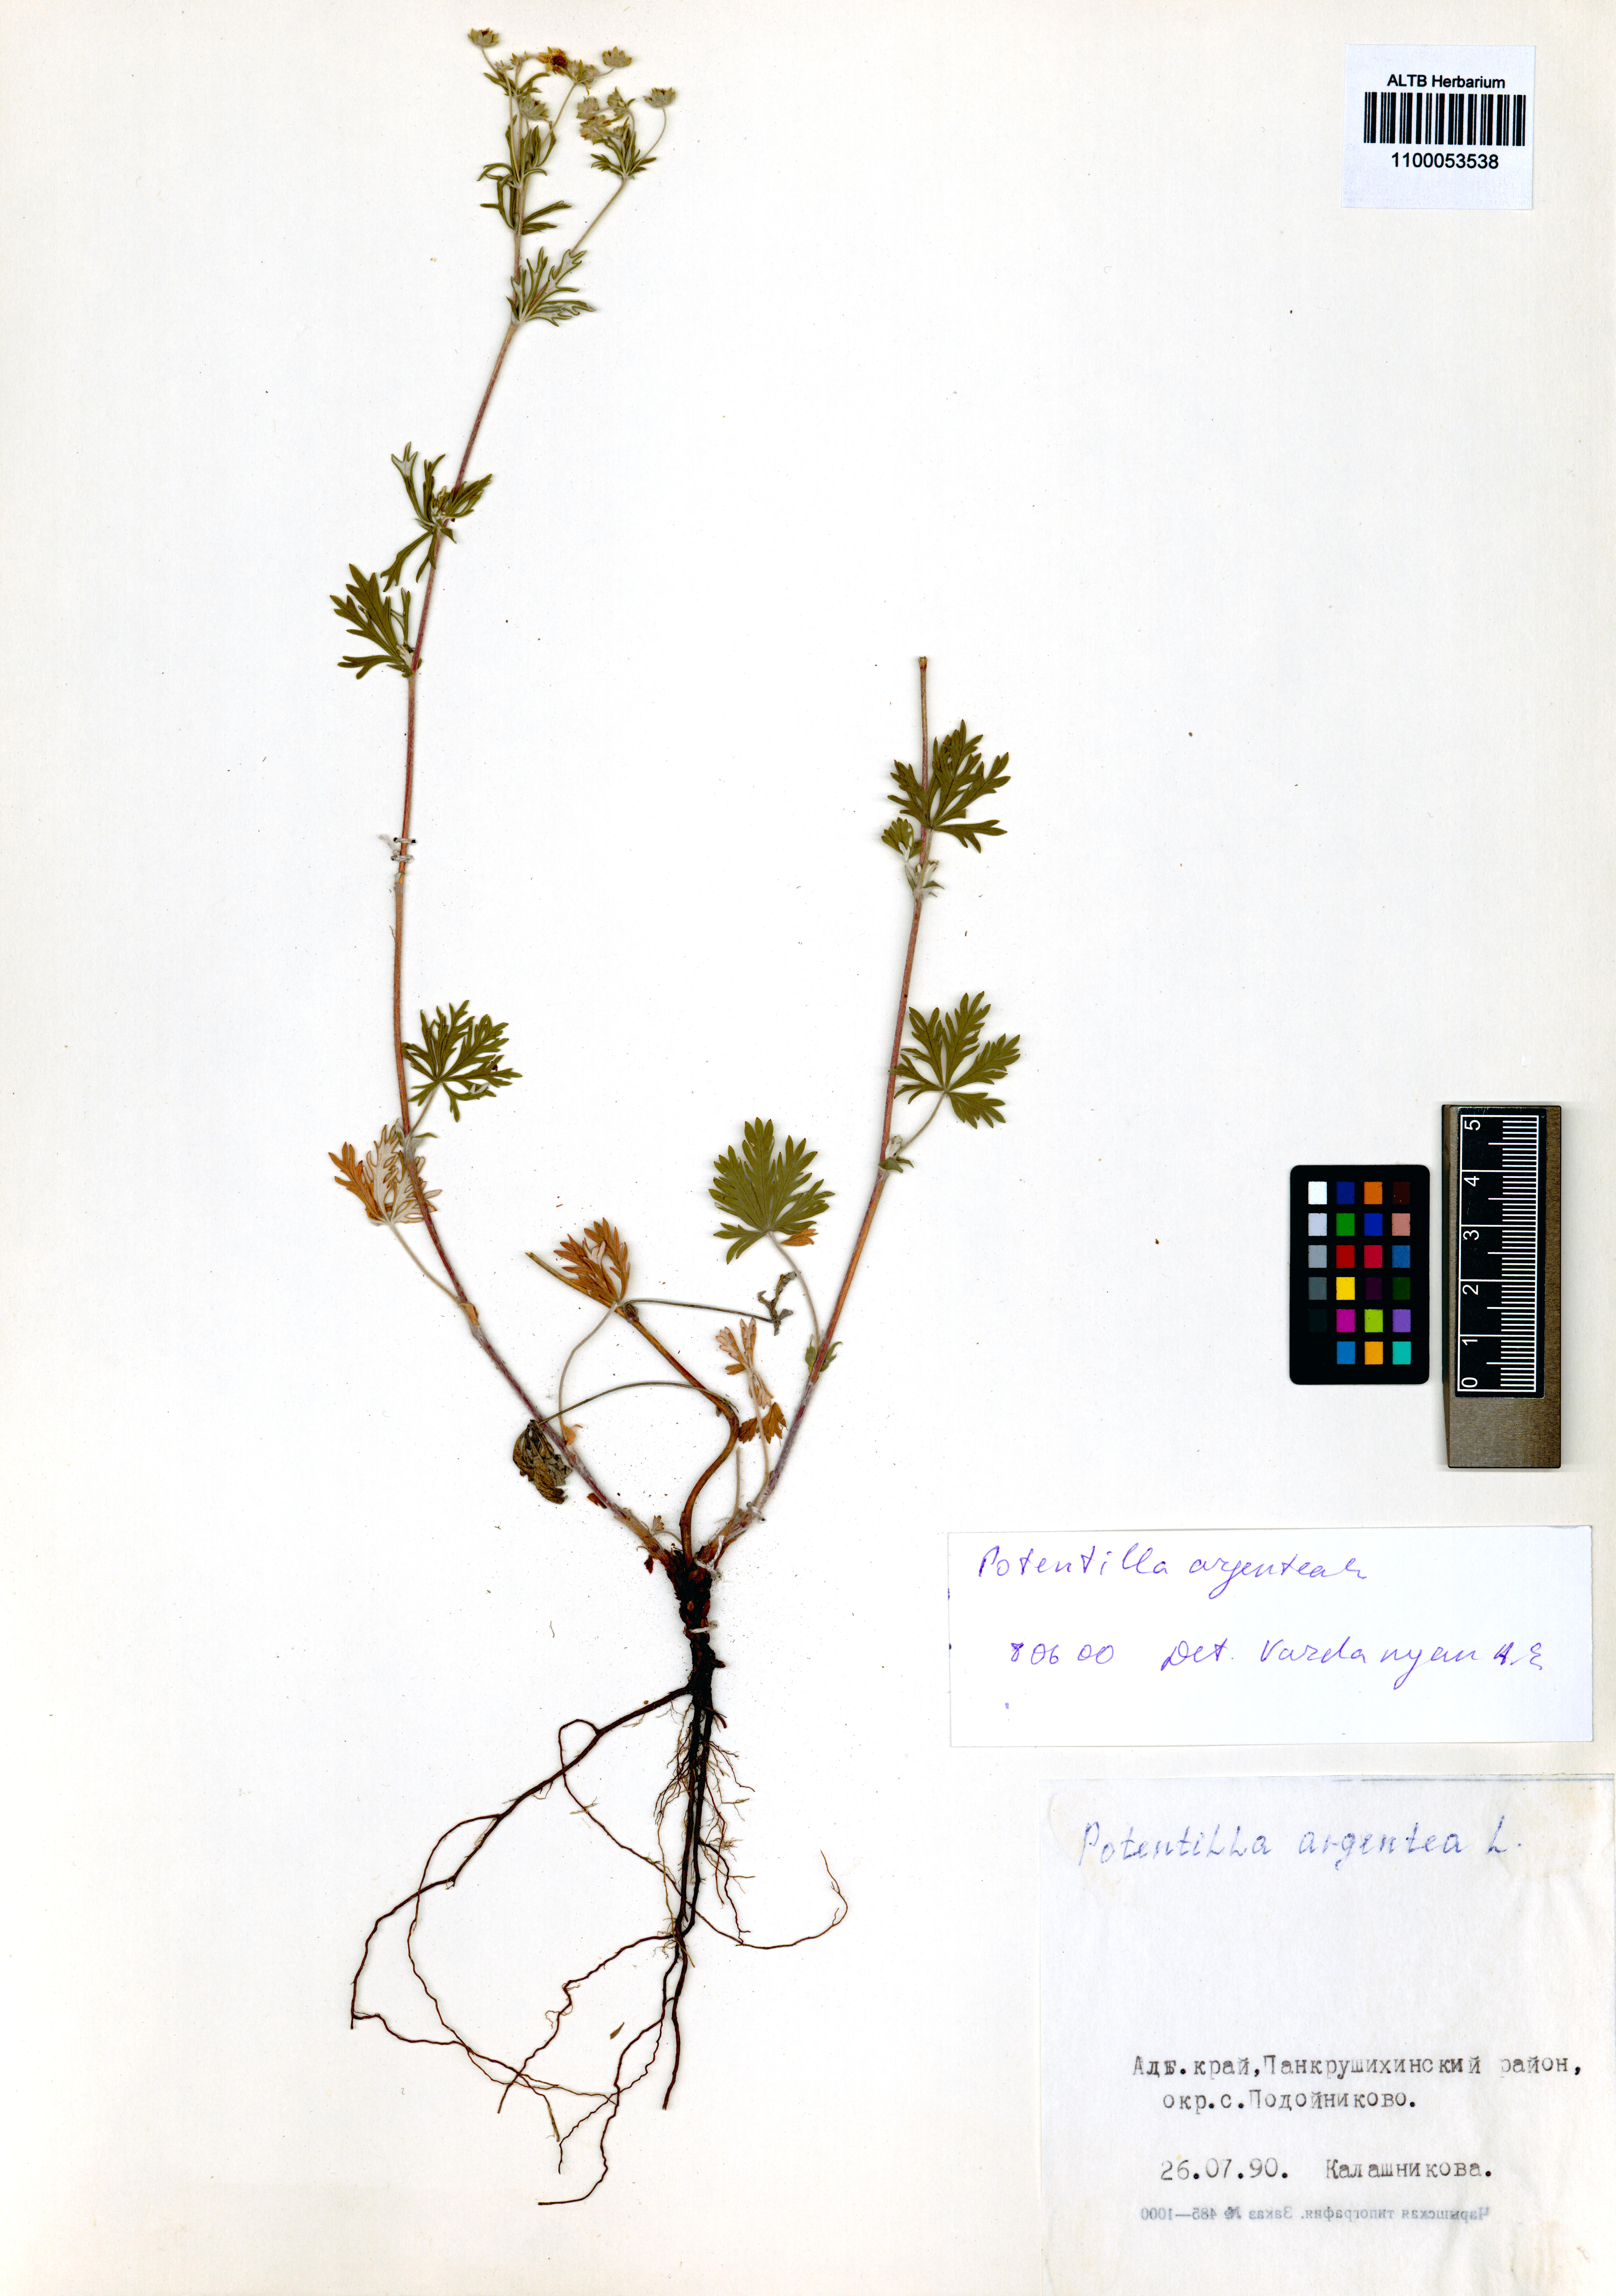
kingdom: Plantae
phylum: Tracheophyta
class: Magnoliopsida
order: Rosales
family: Rosaceae
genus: Potentilla
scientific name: Potentilla argentea
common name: Hoary cinquefoil
